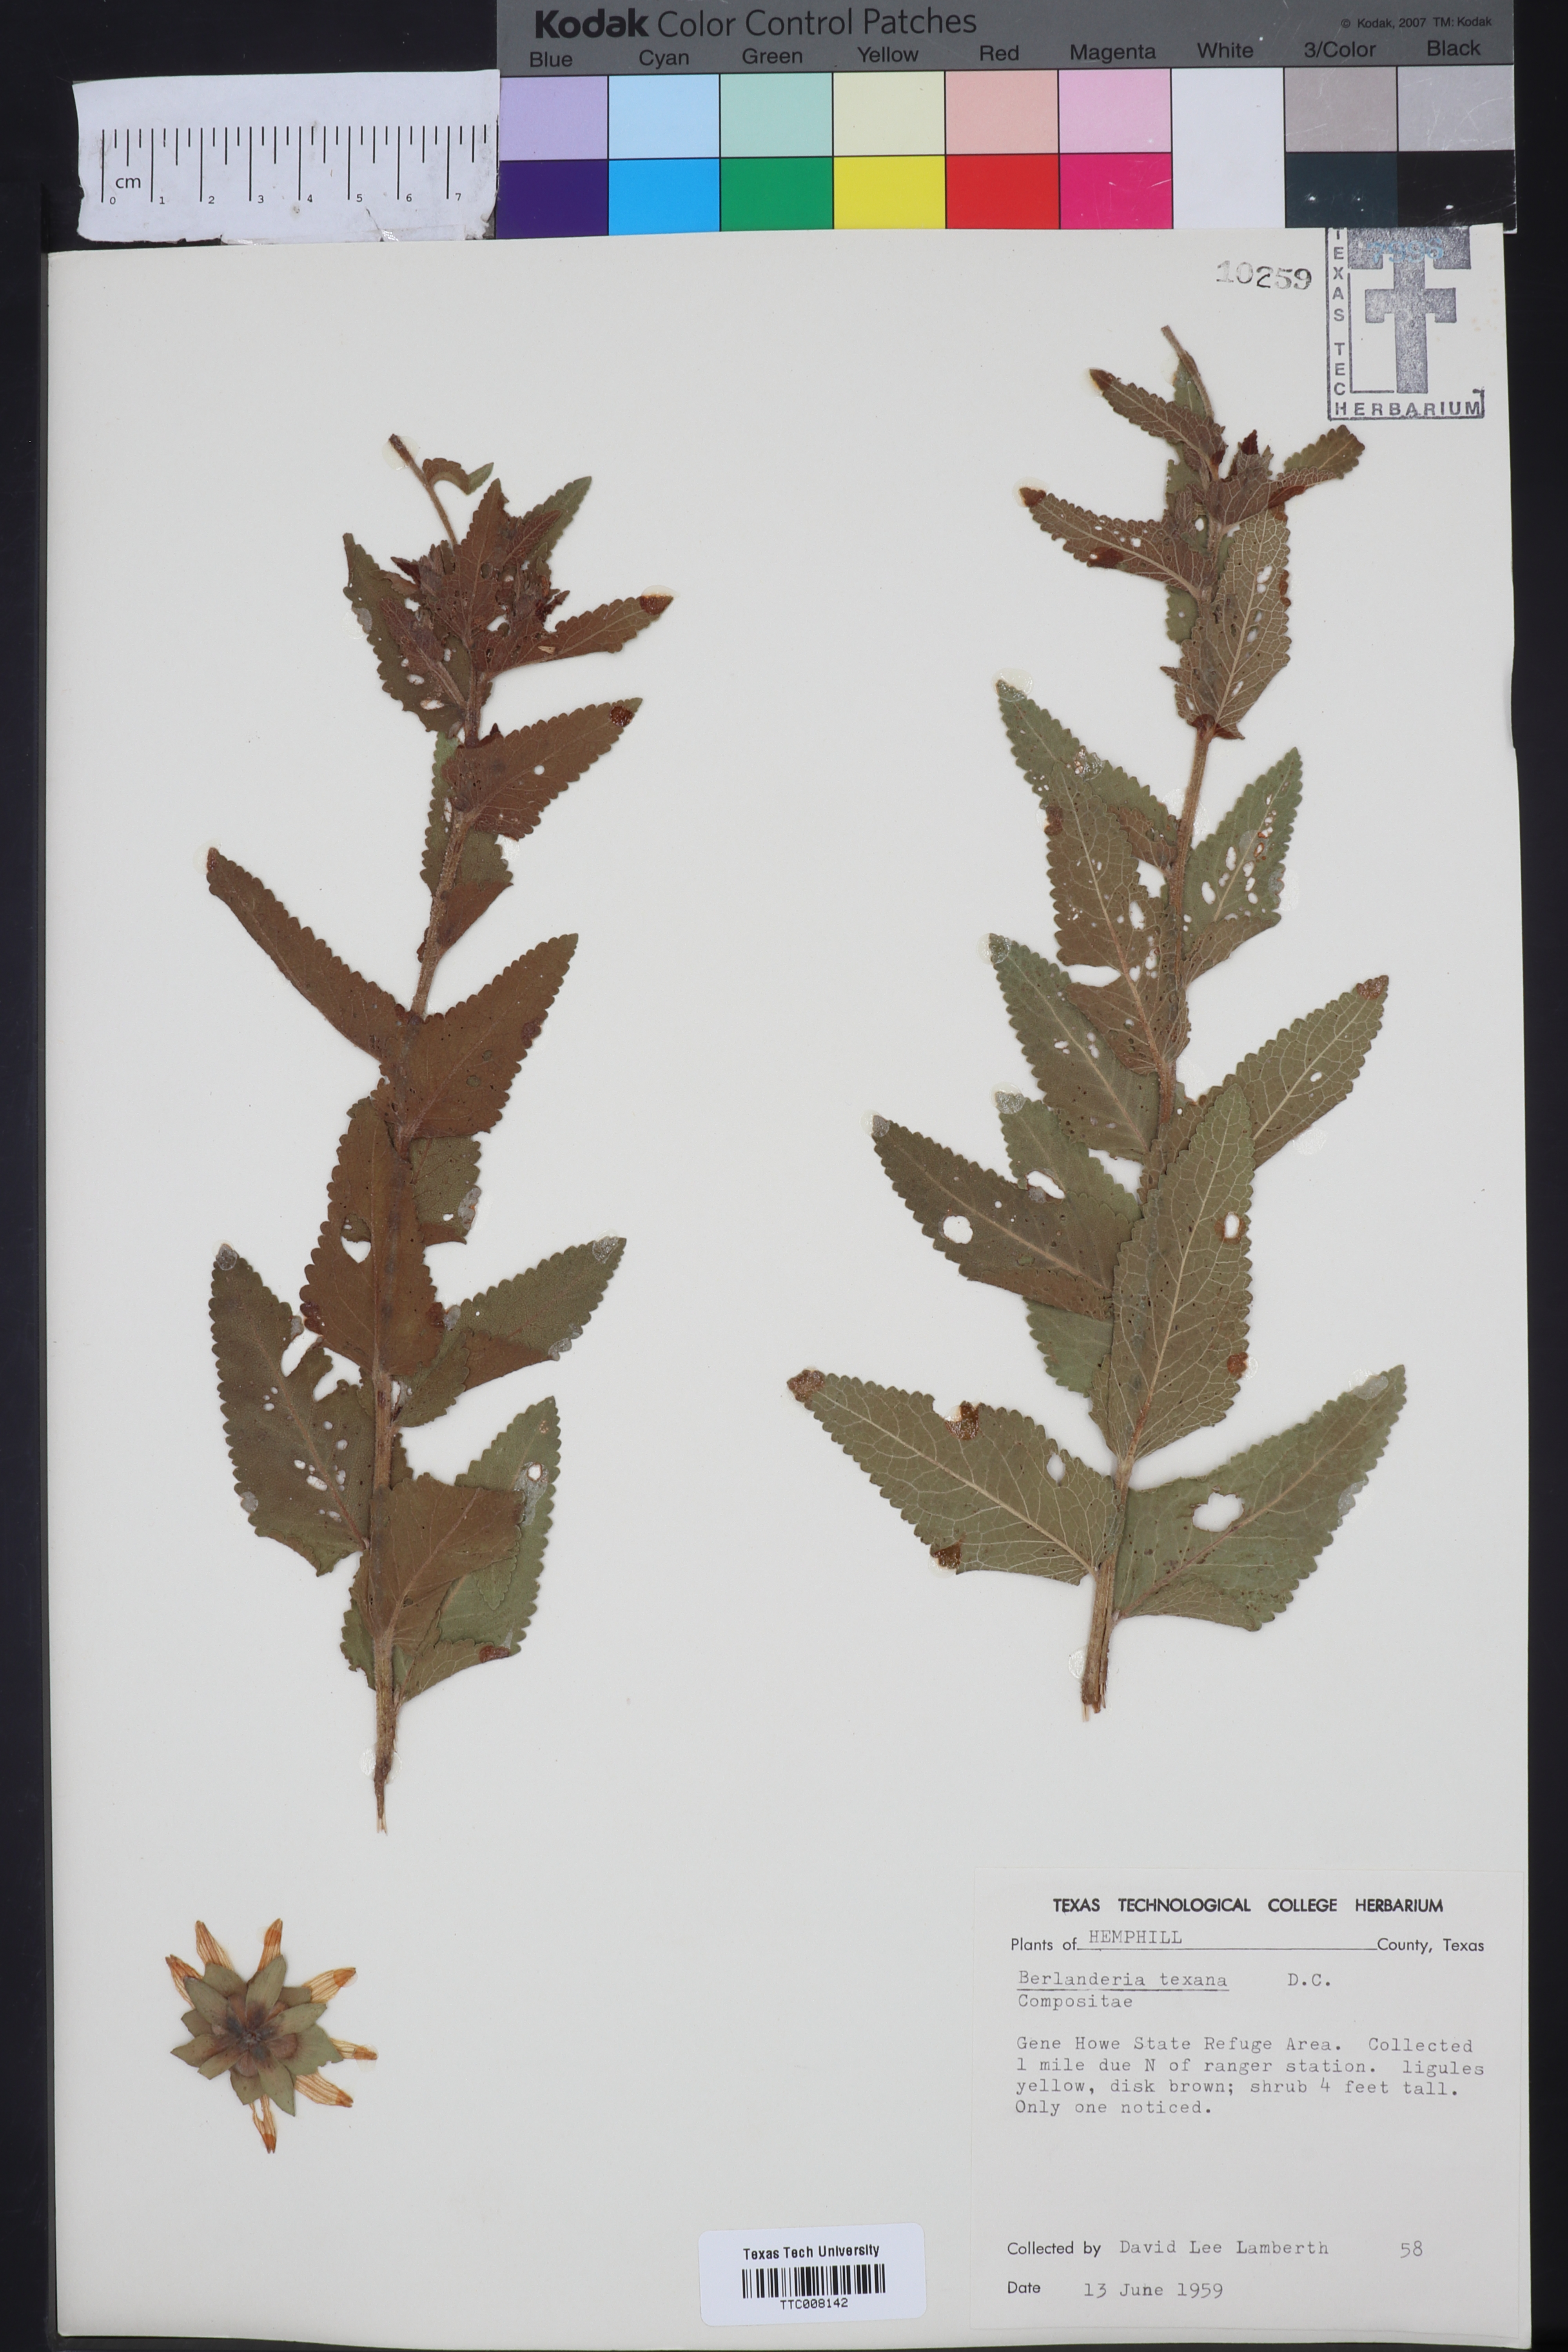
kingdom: Plantae
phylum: Tracheophyta
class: Magnoliopsida
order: Asterales
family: Asteraceae
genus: Berlandiera
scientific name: Berlandiera texana
